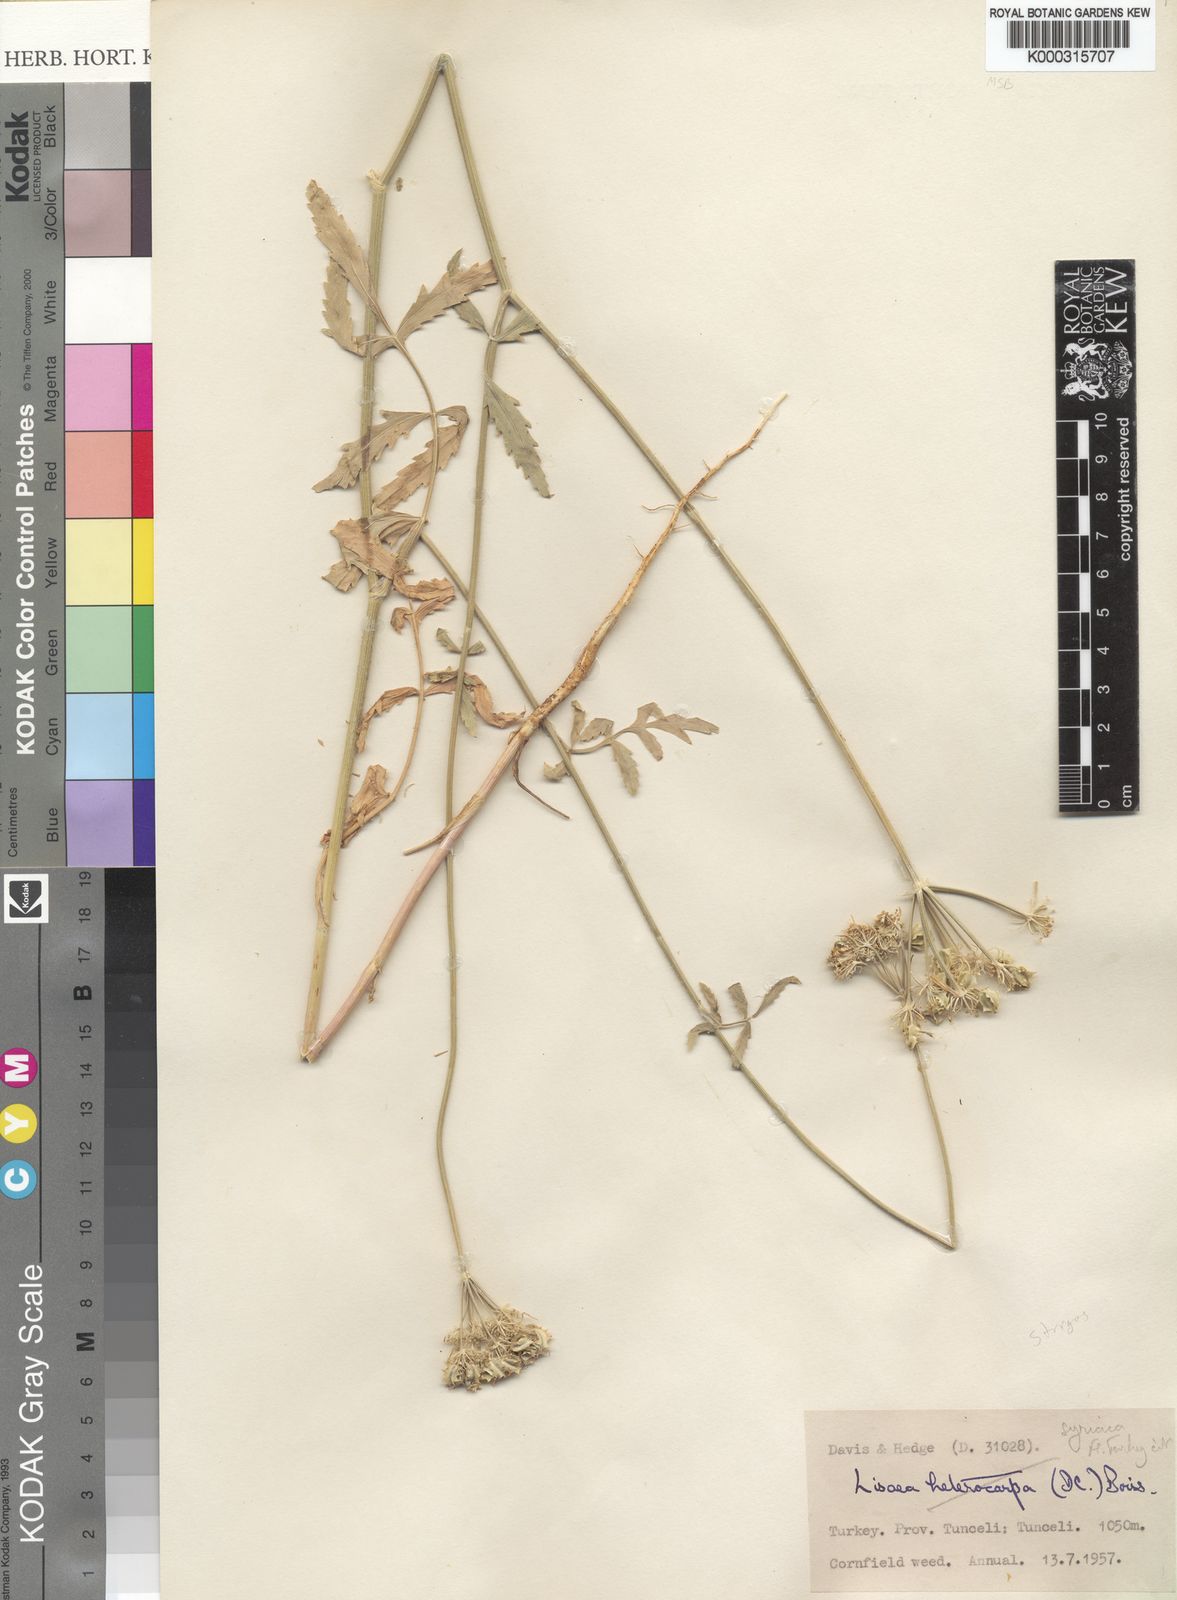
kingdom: Plantae
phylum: Tracheophyta
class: Magnoliopsida
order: Apiales
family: Apiaceae
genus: Lisaea
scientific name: Lisaea strigosa
